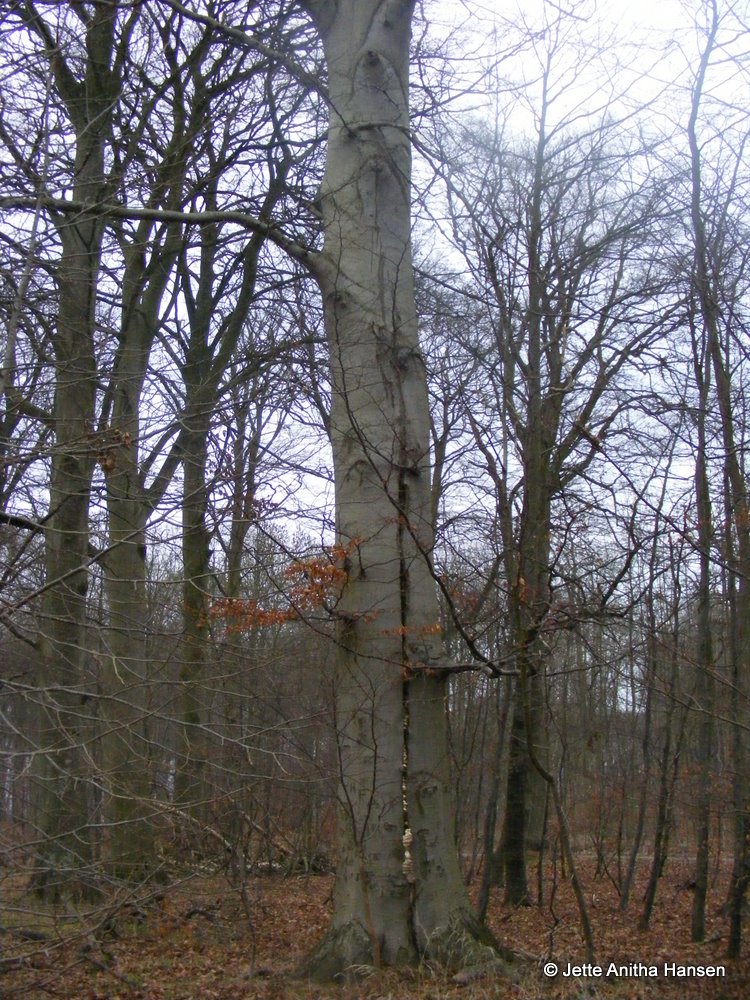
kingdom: Fungi
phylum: Basidiomycota
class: Agaricomycetes
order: Polyporales
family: Polyporaceae
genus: Trametes
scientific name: Trametes gibbosa
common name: puklet læderporesvamp
